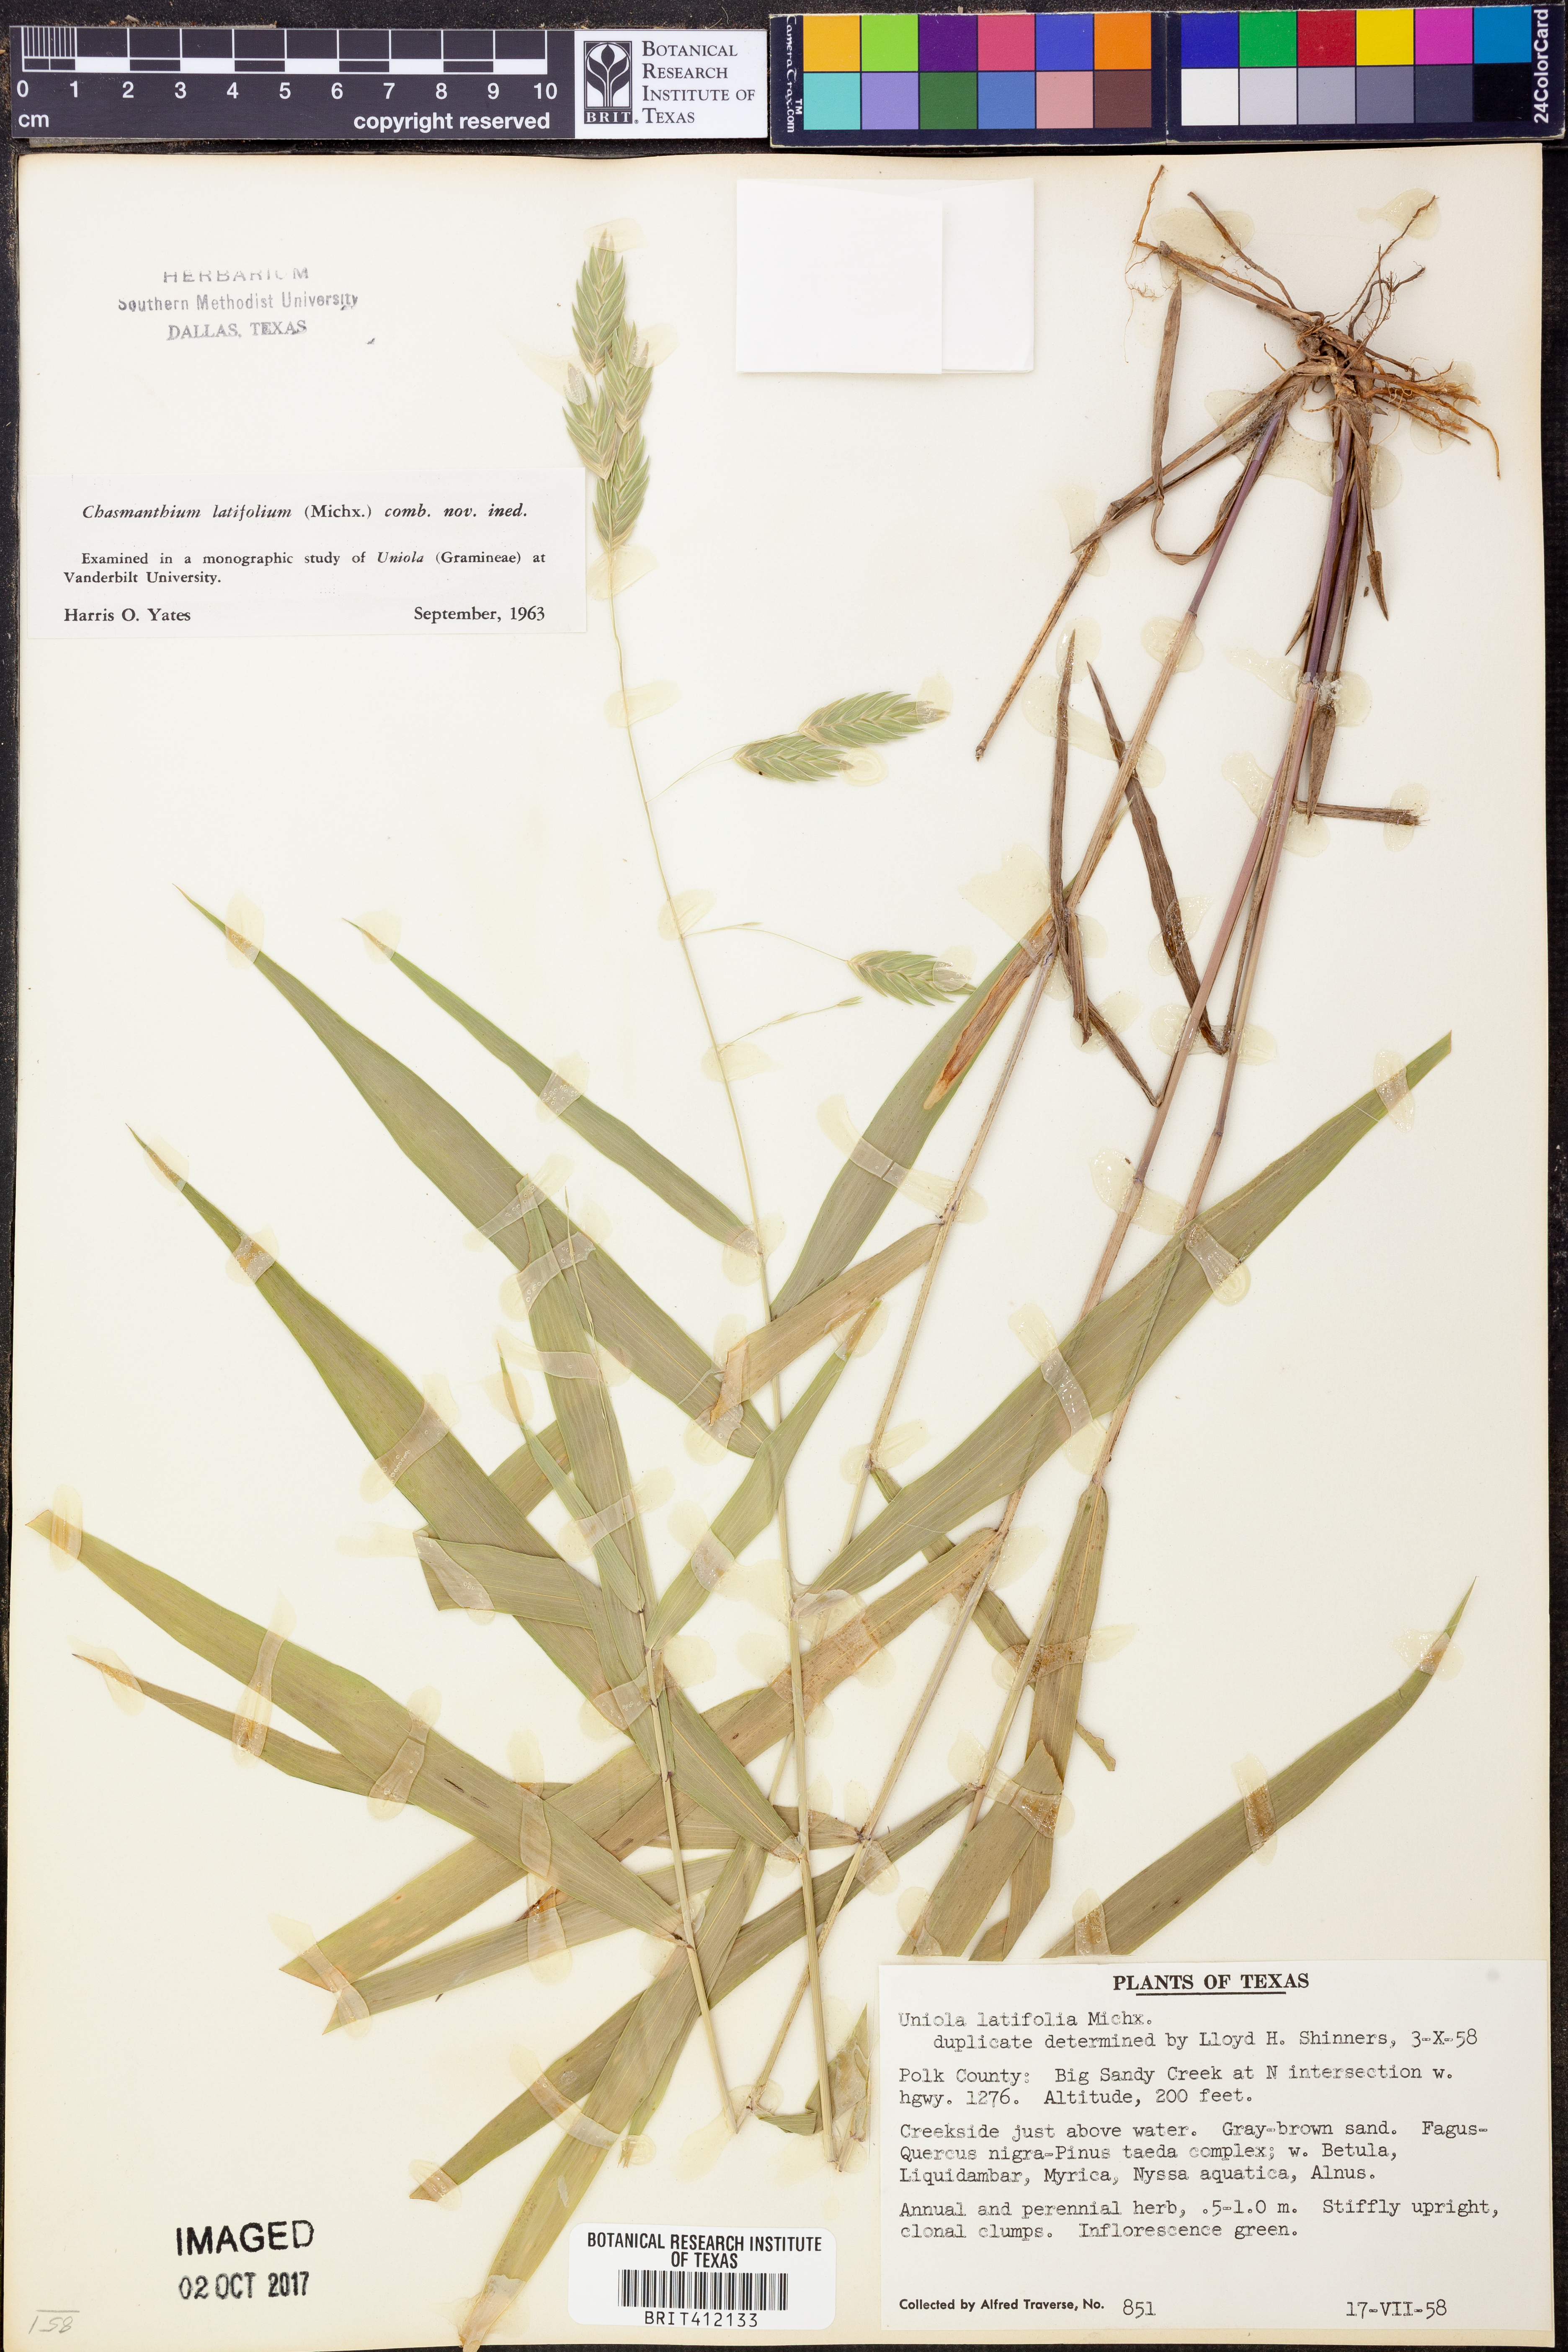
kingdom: Plantae
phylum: Tracheophyta
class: Liliopsida
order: Poales
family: Poaceae
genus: Chasmanthium
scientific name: Chasmanthium latifolium
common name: Broad-leaved chasmanthium
